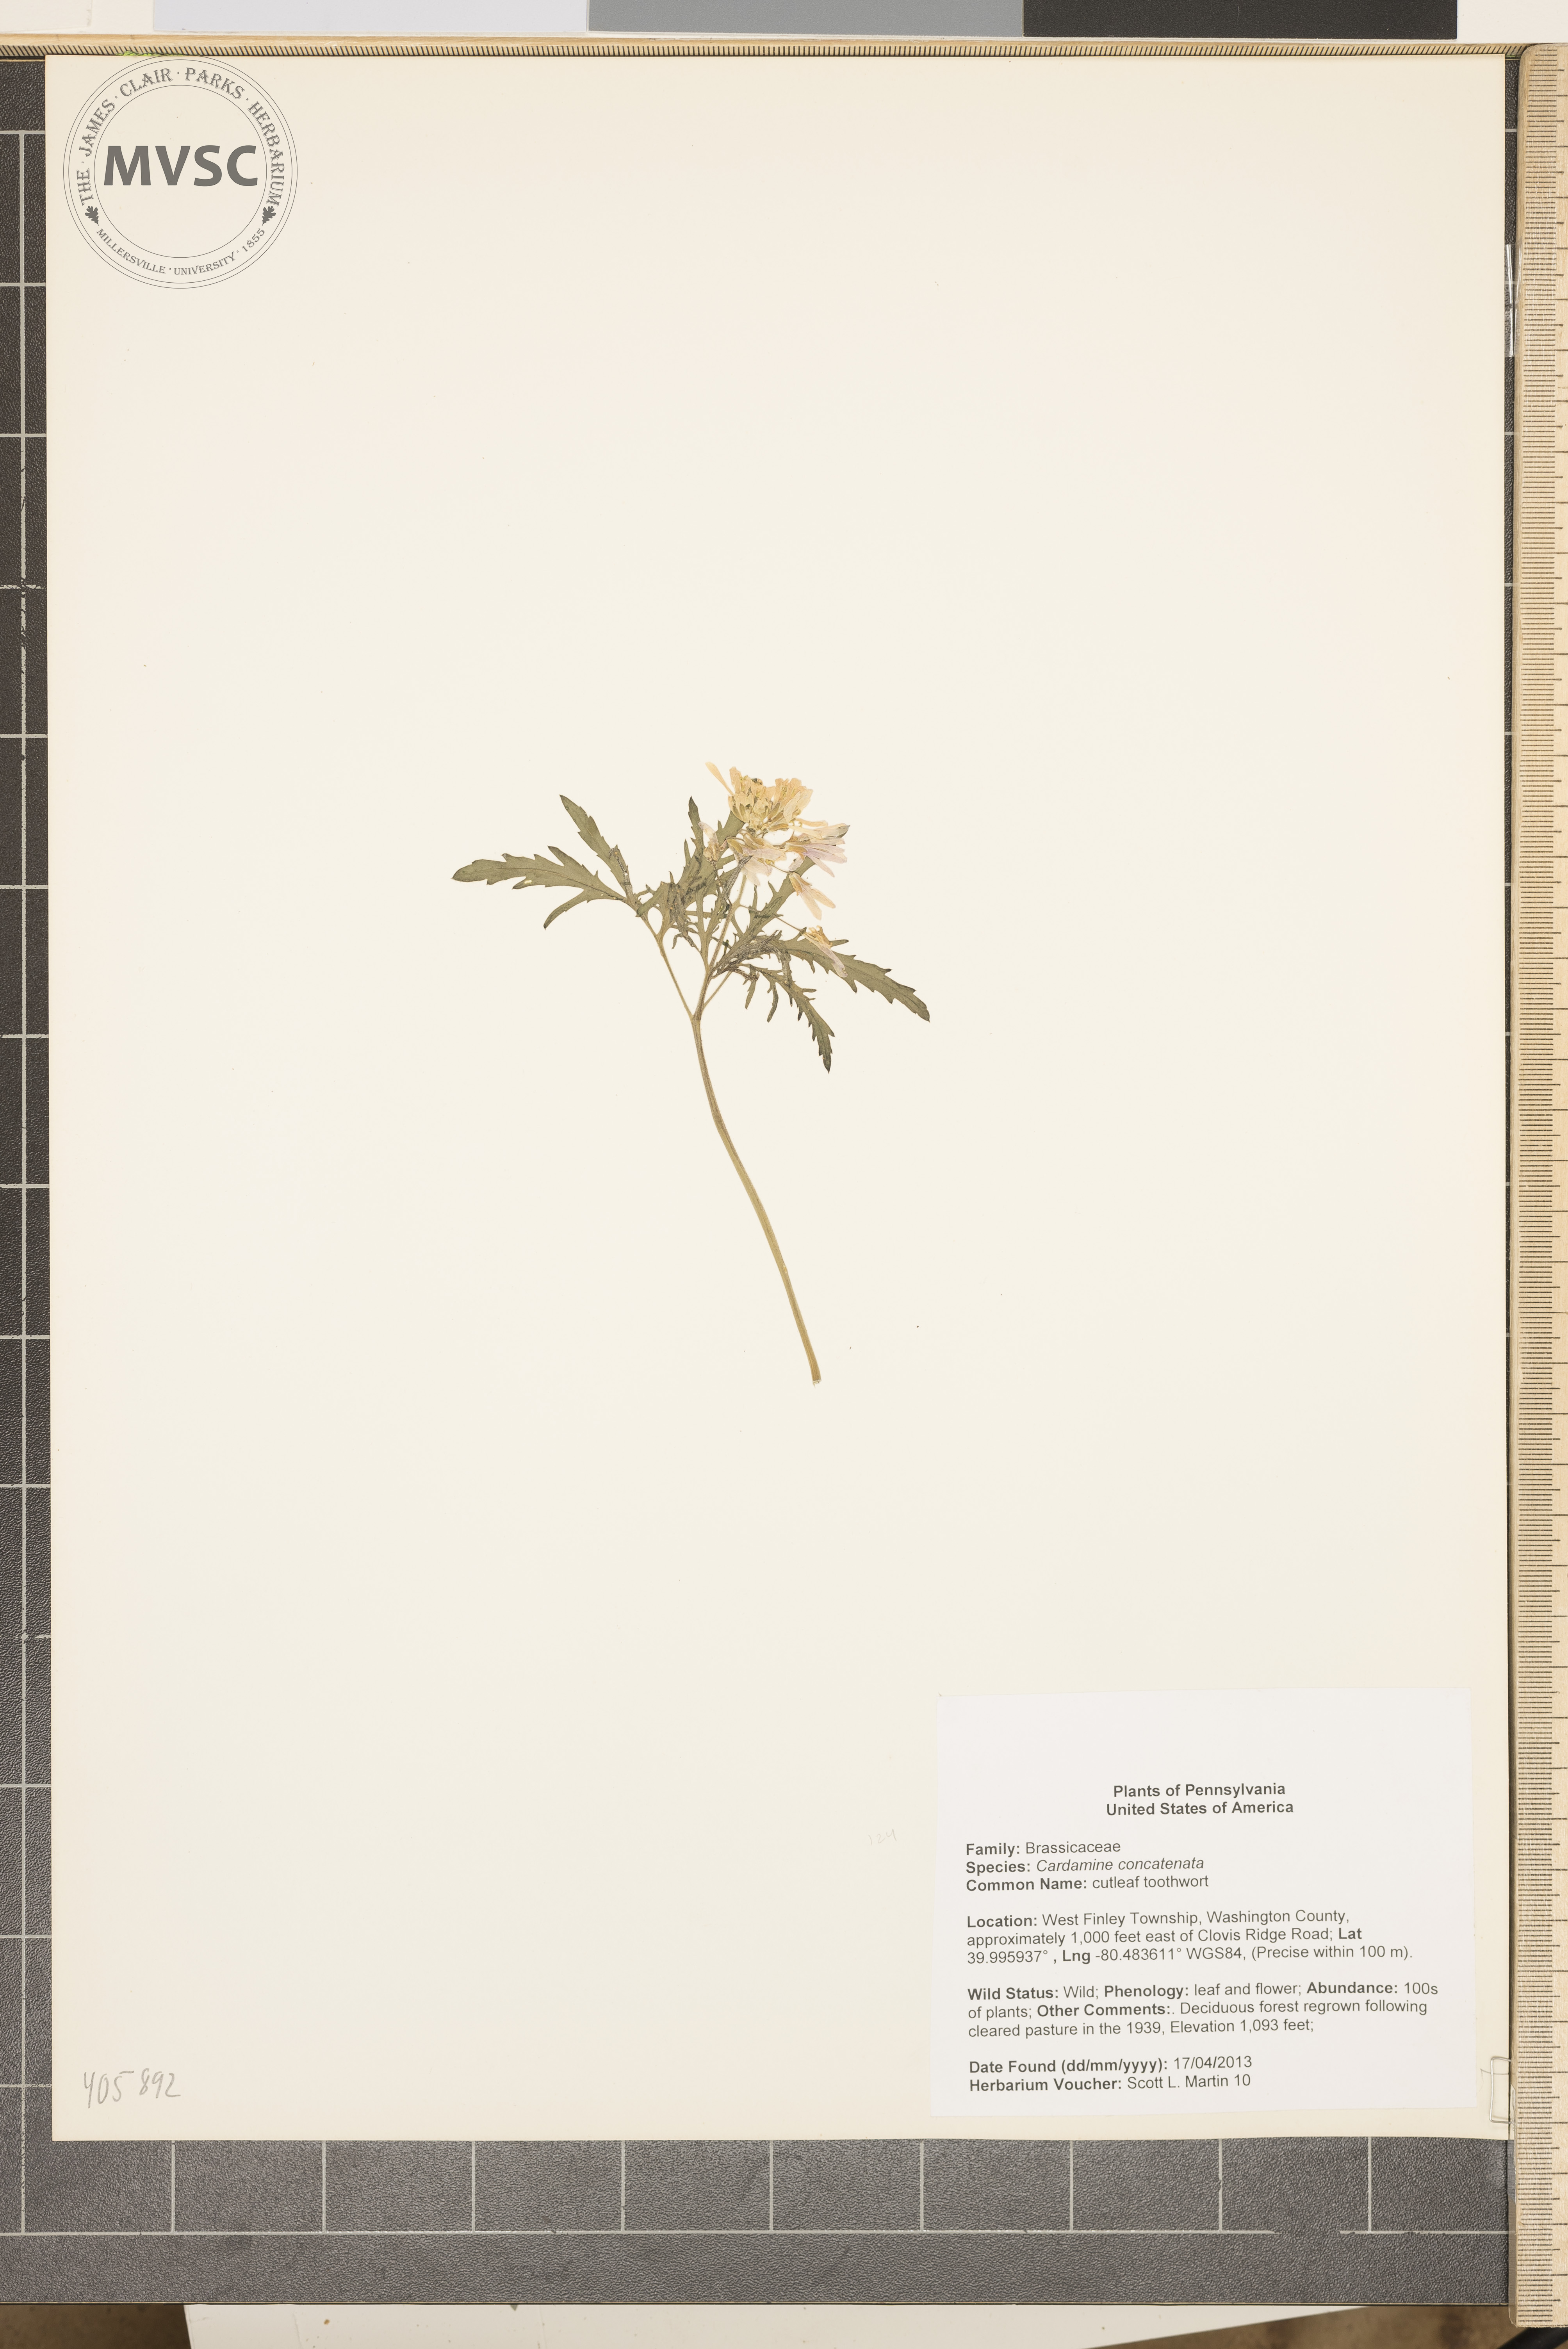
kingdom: Plantae
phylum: Tracheophyta
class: Magnoliopsida
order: Brassicales
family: Brassicaceae
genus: Cardamine
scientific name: Cardamine concatenata
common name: cutleaf toothwort
